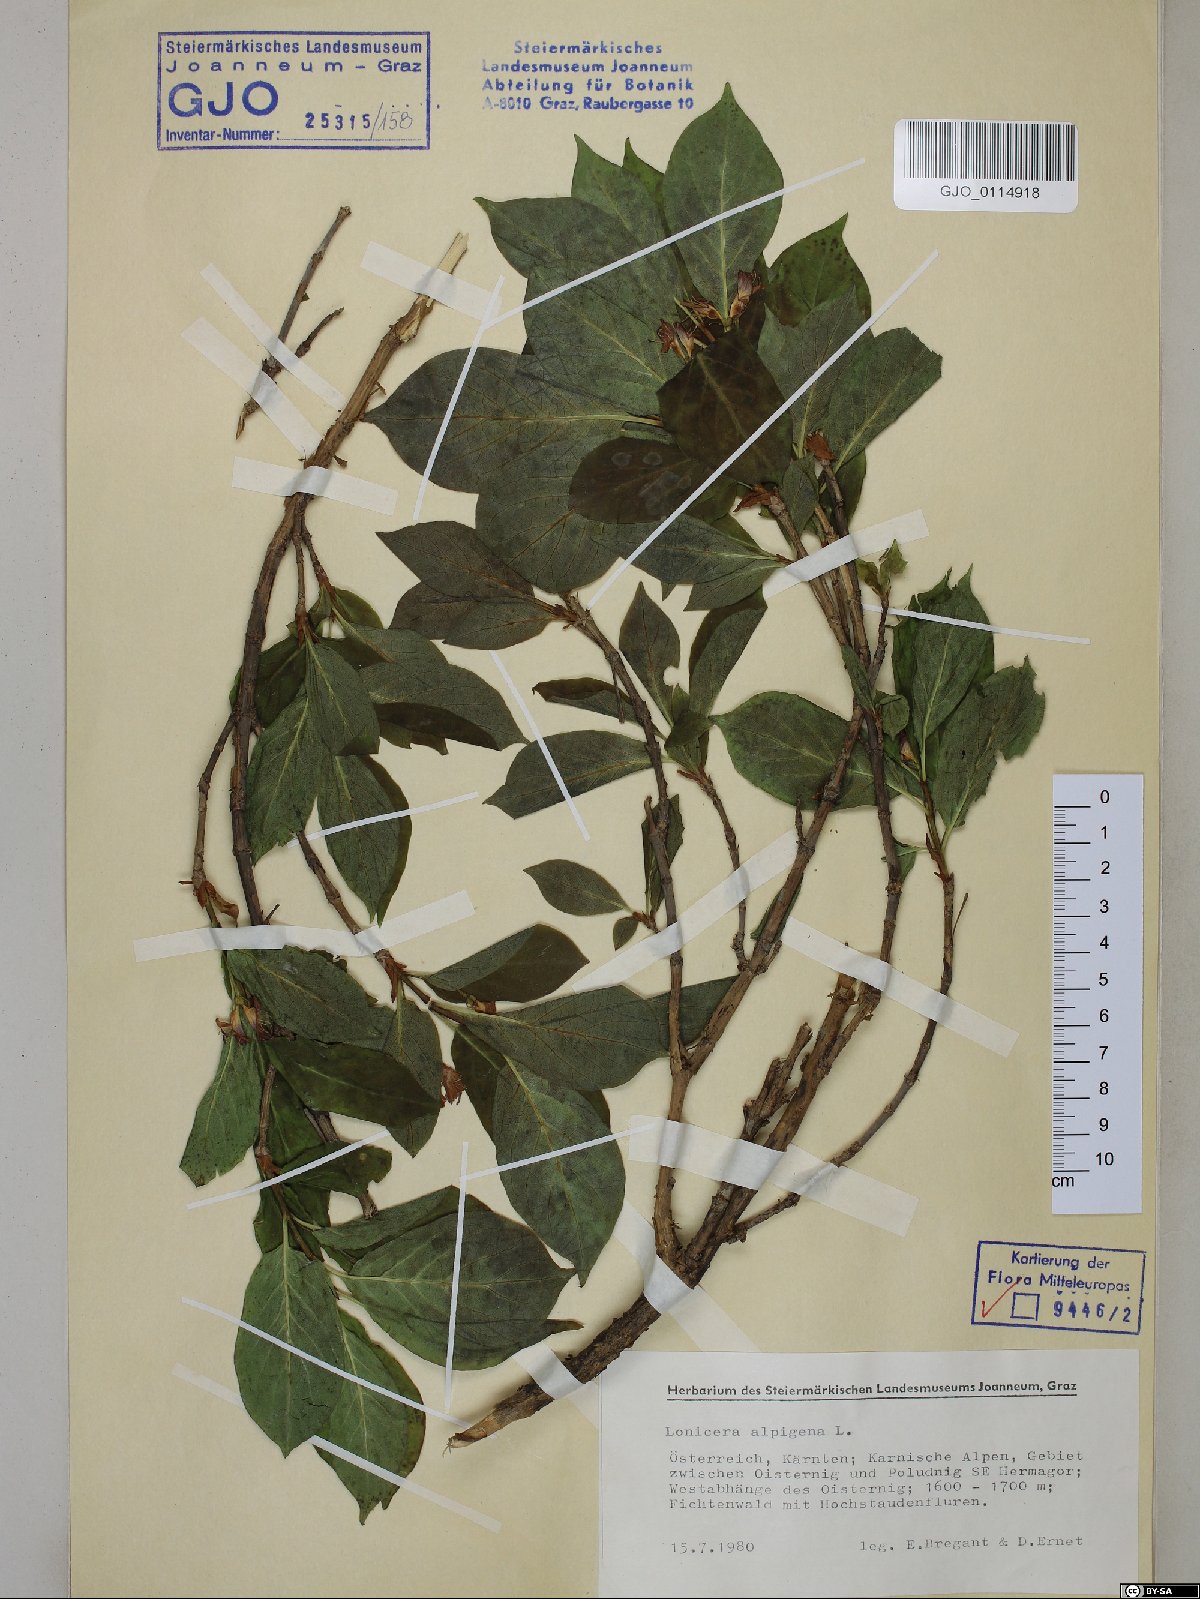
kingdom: Plantae
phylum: Tracheophyta
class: Magnoliopsida
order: Dipsacales
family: Caprifoliaceae
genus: Lonicera
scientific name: Lonicera alpigena
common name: Alpine honeysuckle
